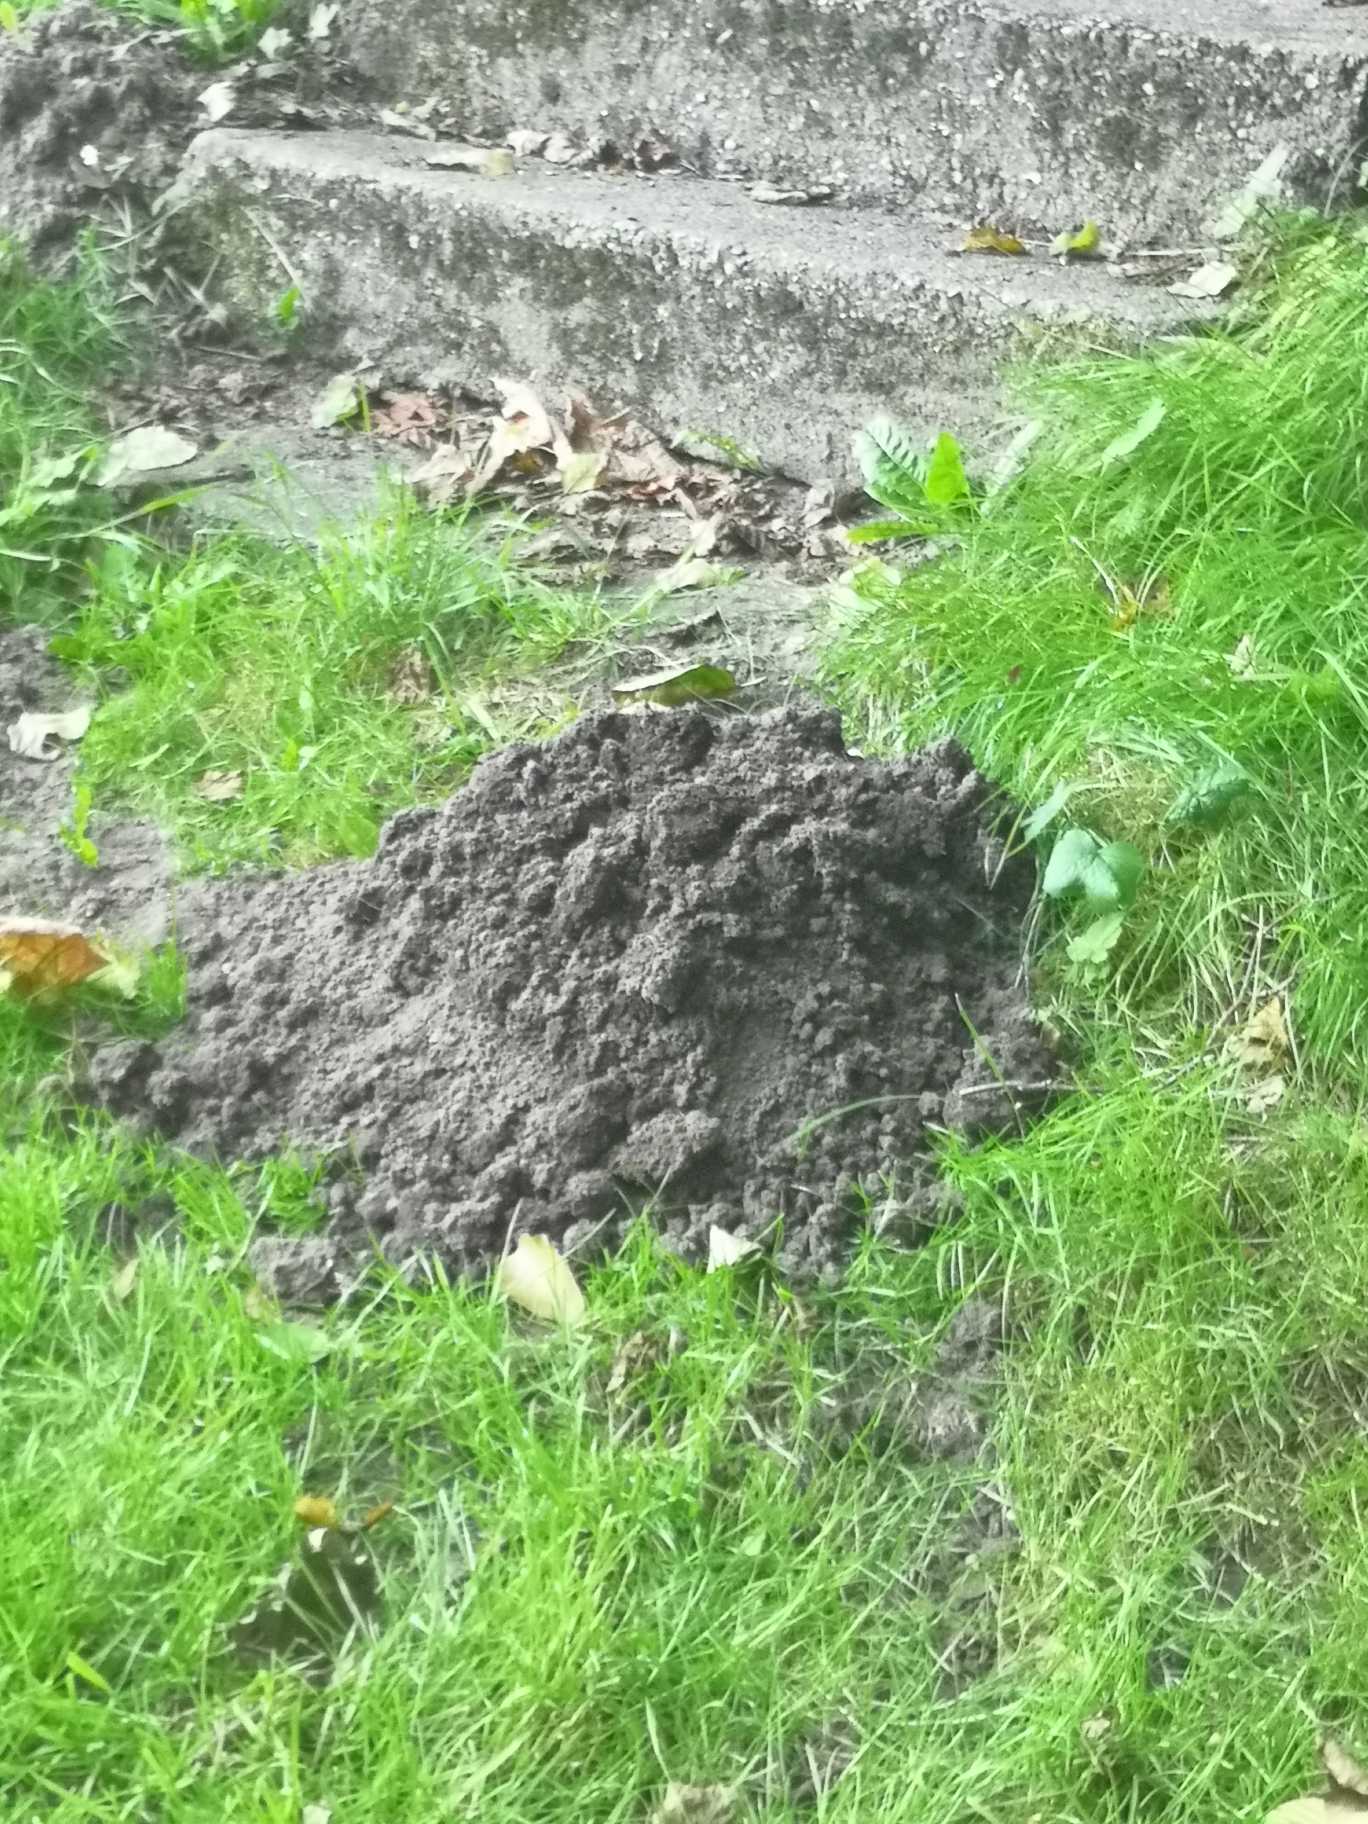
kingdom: Animalia
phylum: Chordata
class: Mammalia
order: Soricomorpha
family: Talpidae
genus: Talpa
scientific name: Talpa europaea
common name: Muldvarp
